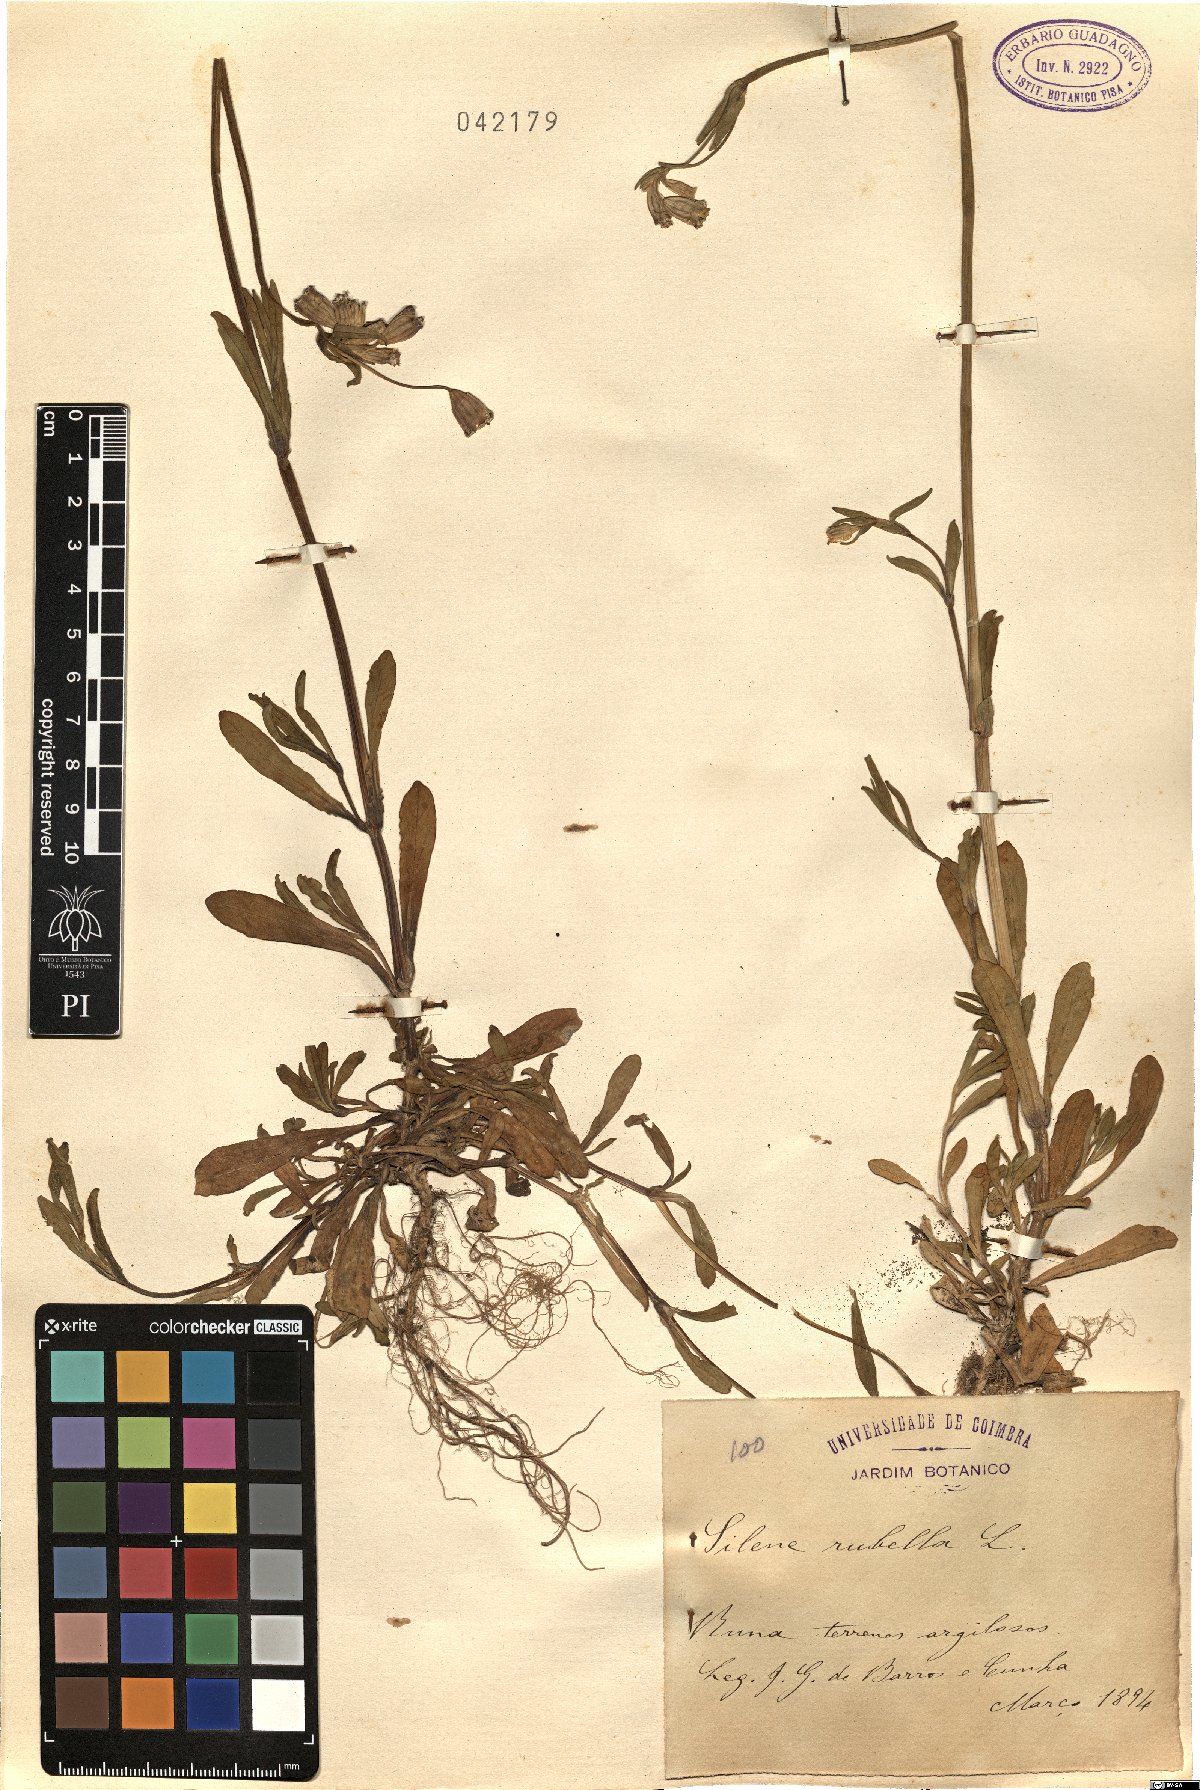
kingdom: Plantae
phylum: Tracheophyta
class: Magnoliopsida
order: Caryophyllales
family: Caryophyllaceae
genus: Silene
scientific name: Silene rubella
